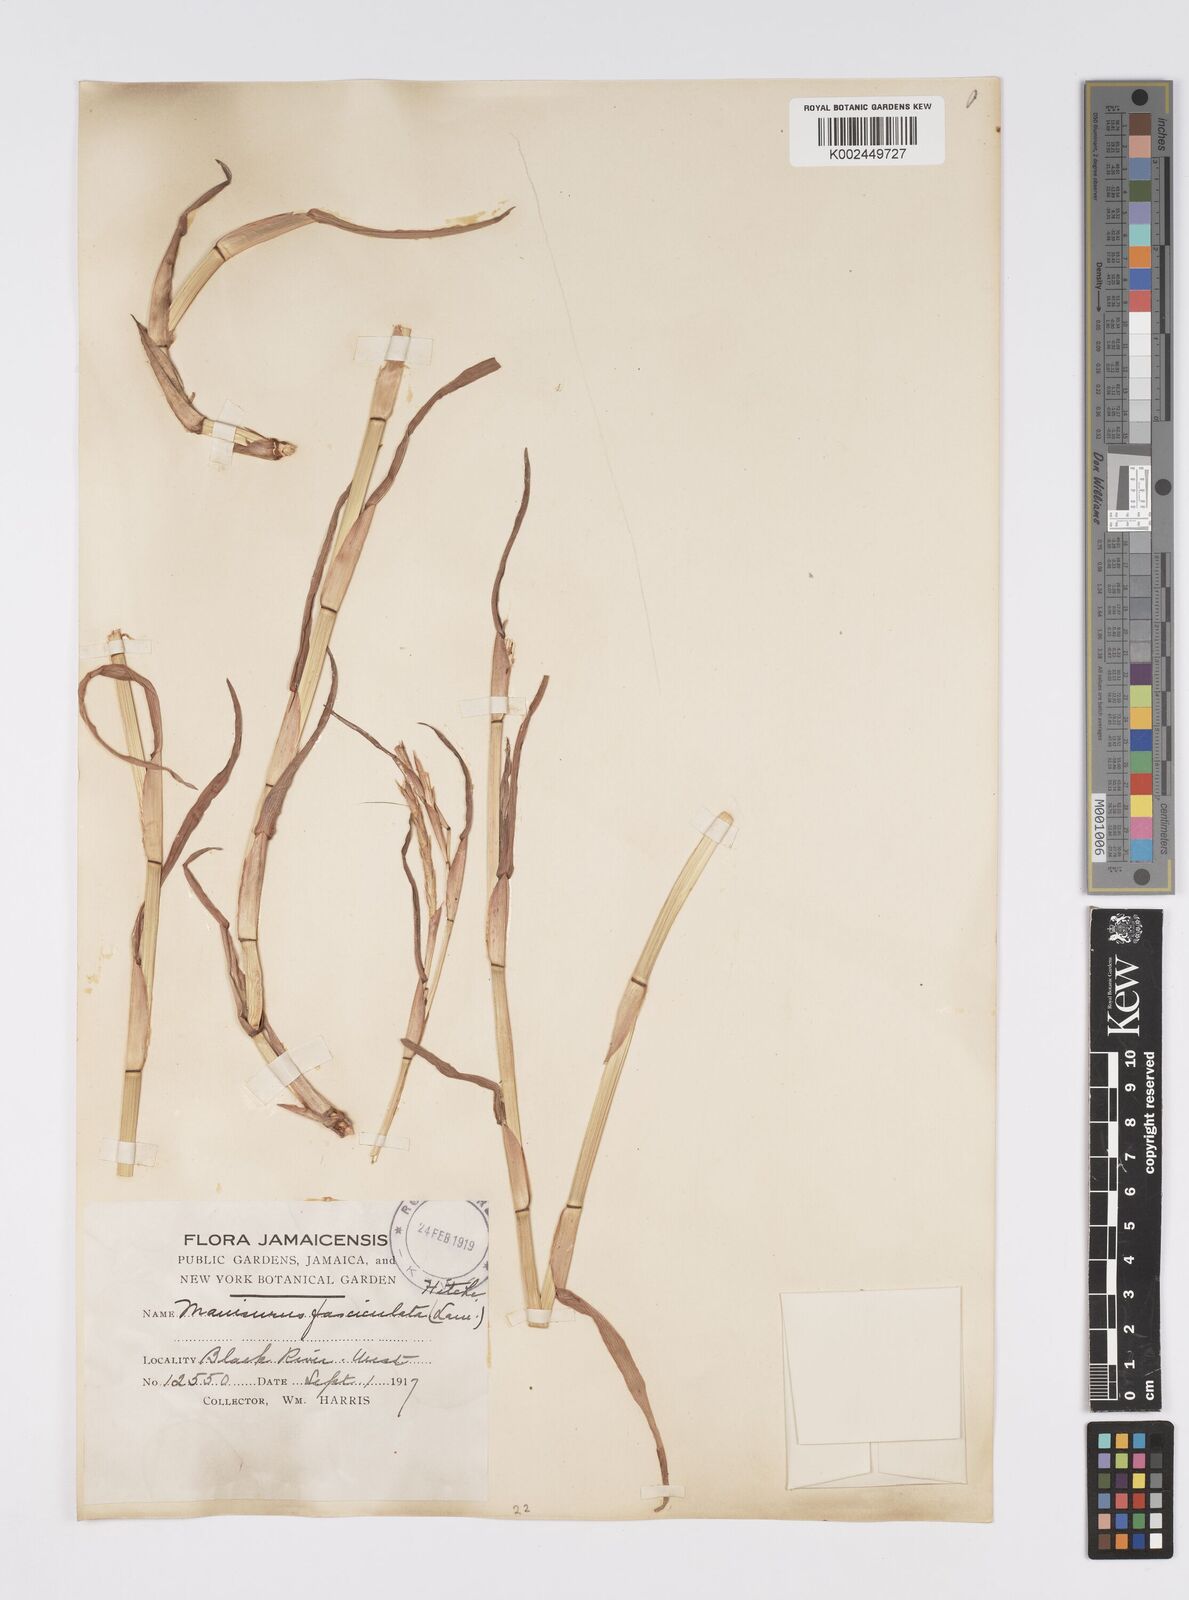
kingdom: Plantae
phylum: Tracheophyta
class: Liliopsida
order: Poales
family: Poaceae
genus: Hemarthria
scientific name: Hemarthria altissima
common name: African jointgrass
